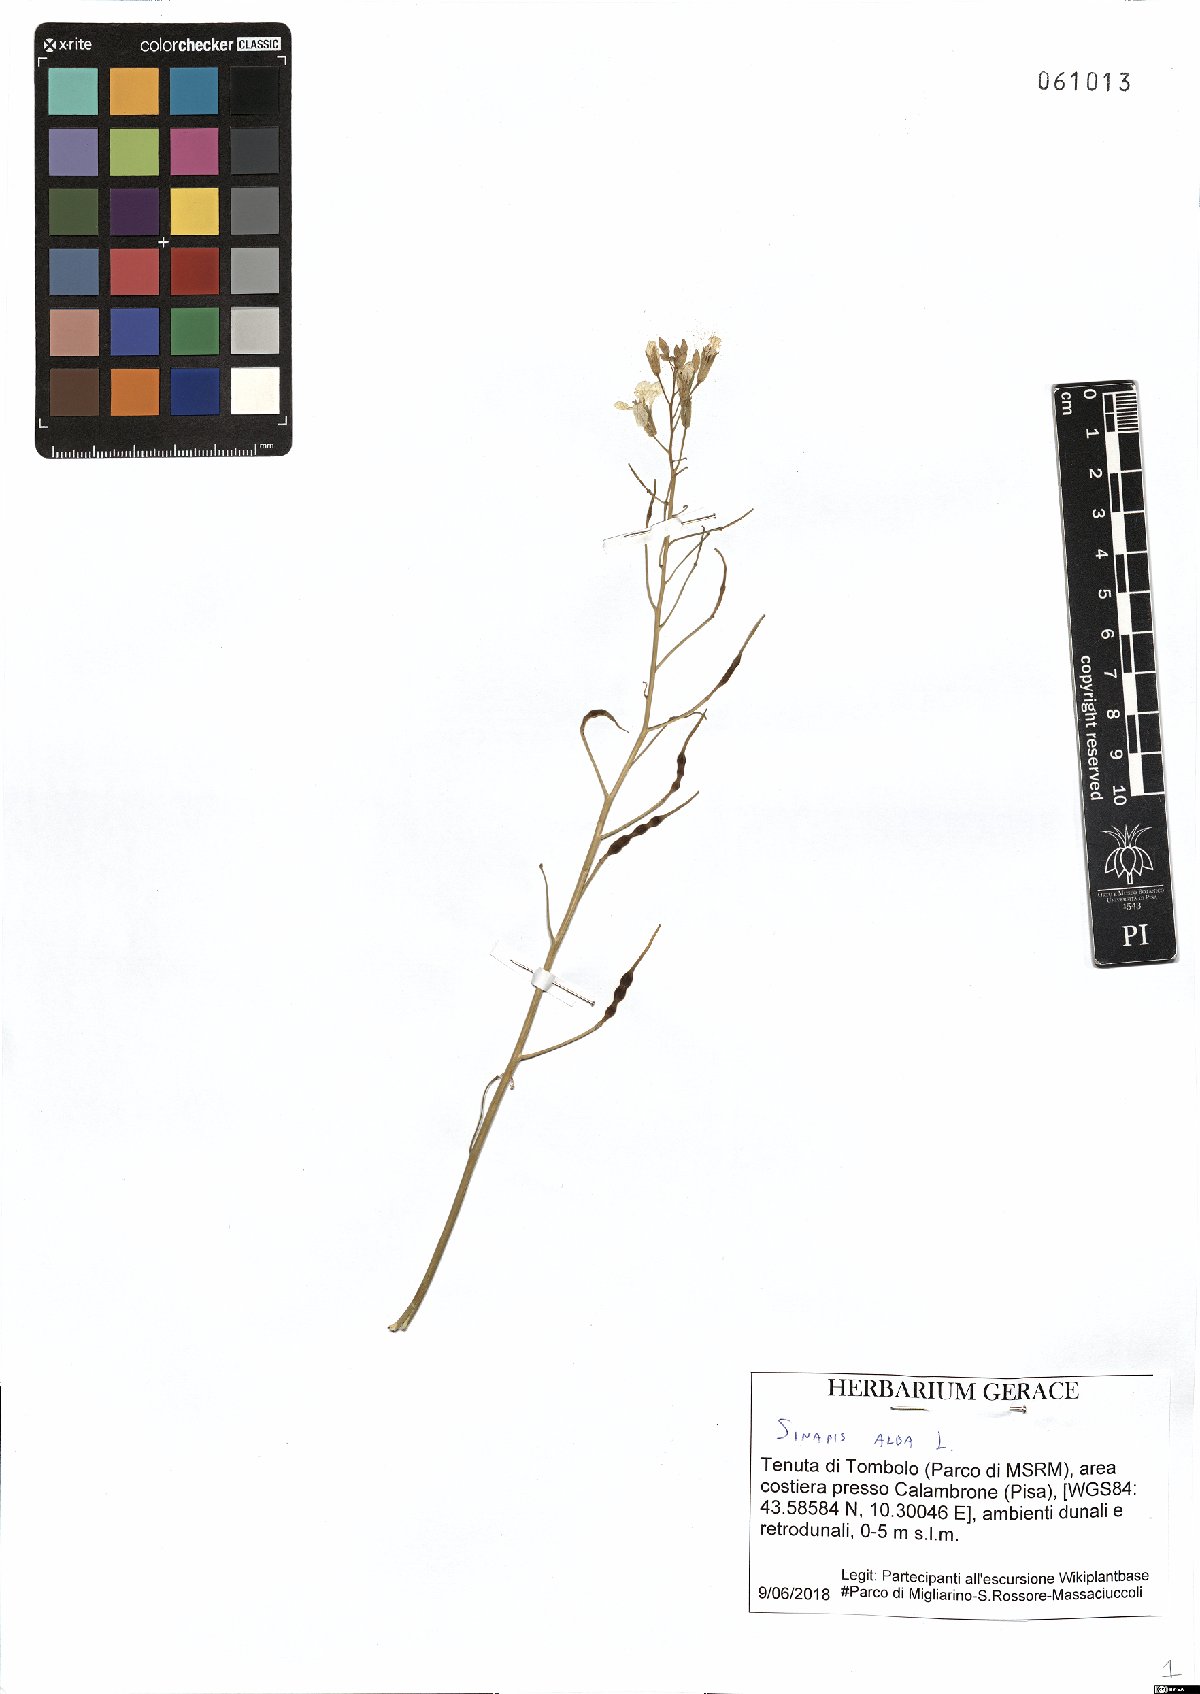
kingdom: Plantae
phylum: Tracheophyta
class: Magnoliopsida
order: Brassicales
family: Brassicaceae
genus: Sinapis
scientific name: Sinapis alba
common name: White mustard
